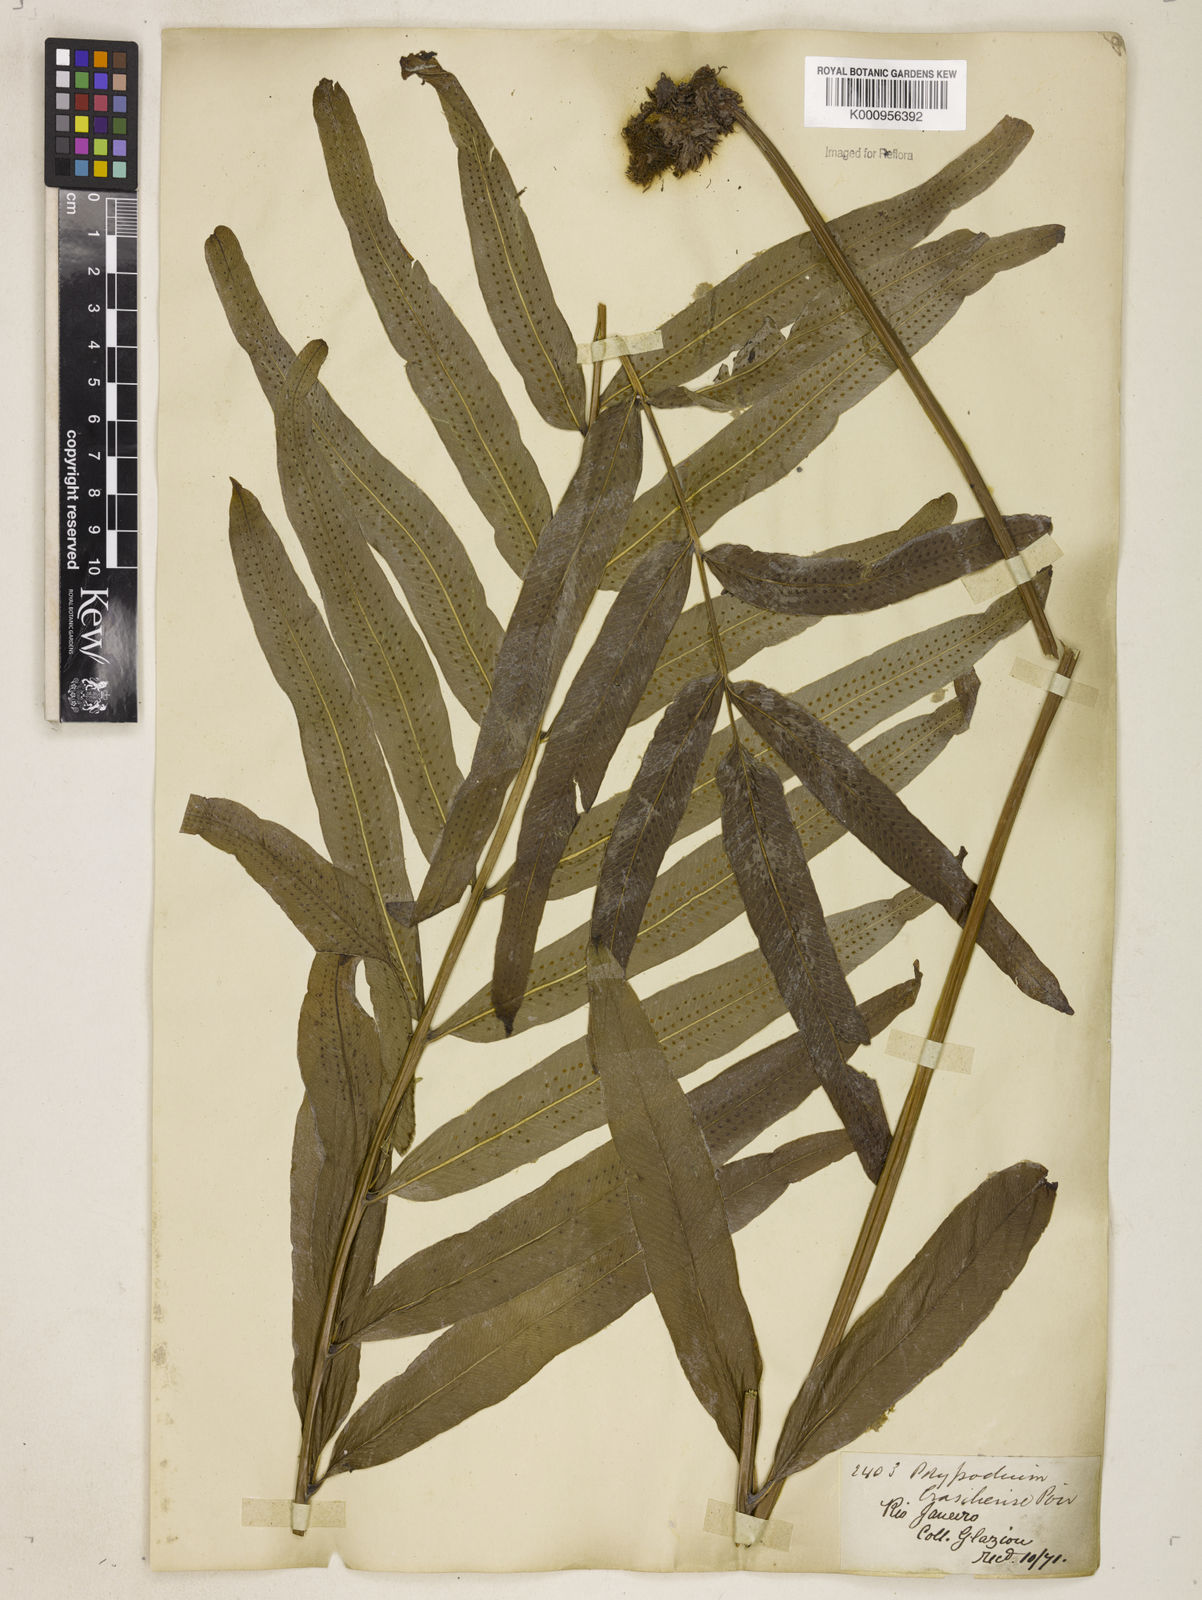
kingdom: Plantae
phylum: Tracheophyta
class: Polypodiopsida
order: Polypodiales
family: Polypodiaceae
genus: Serpocaulon
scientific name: Serpocaulon triseriale
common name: Angle-vein fern
